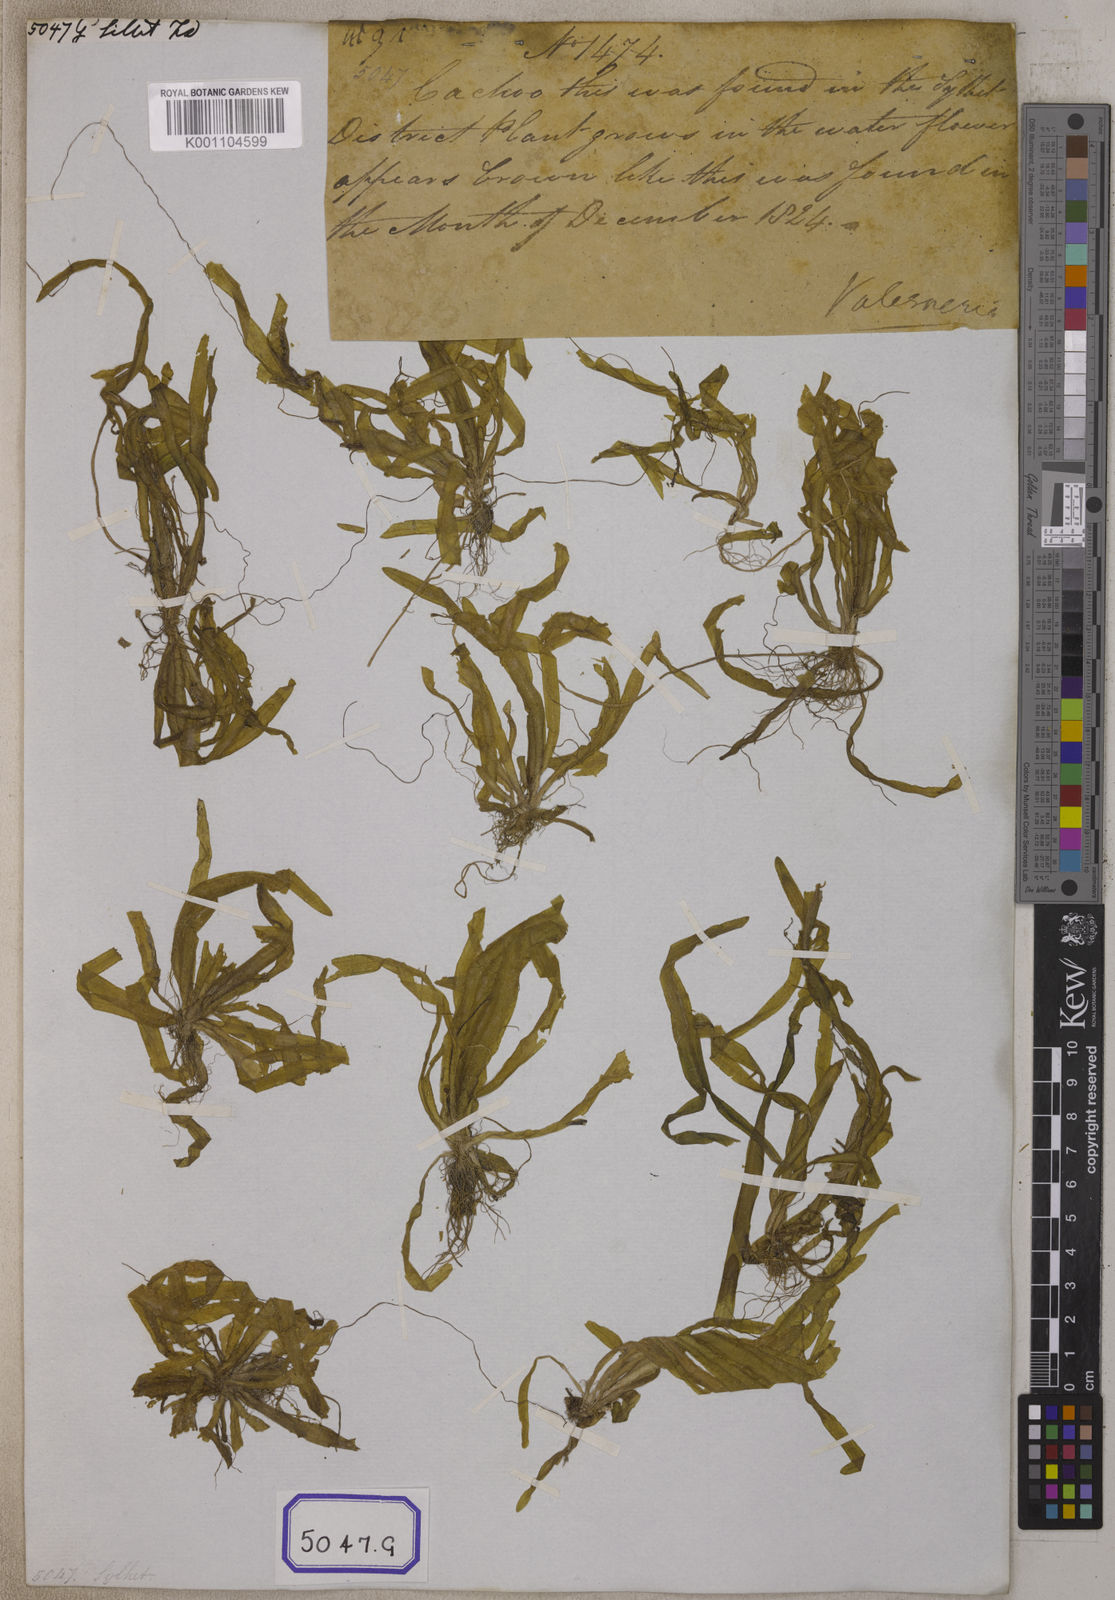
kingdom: Plantae
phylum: Tracheophyta
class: Liliopsida
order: Alismatales
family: Hydrocharitaceae
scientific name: Hydrocharitaceae
